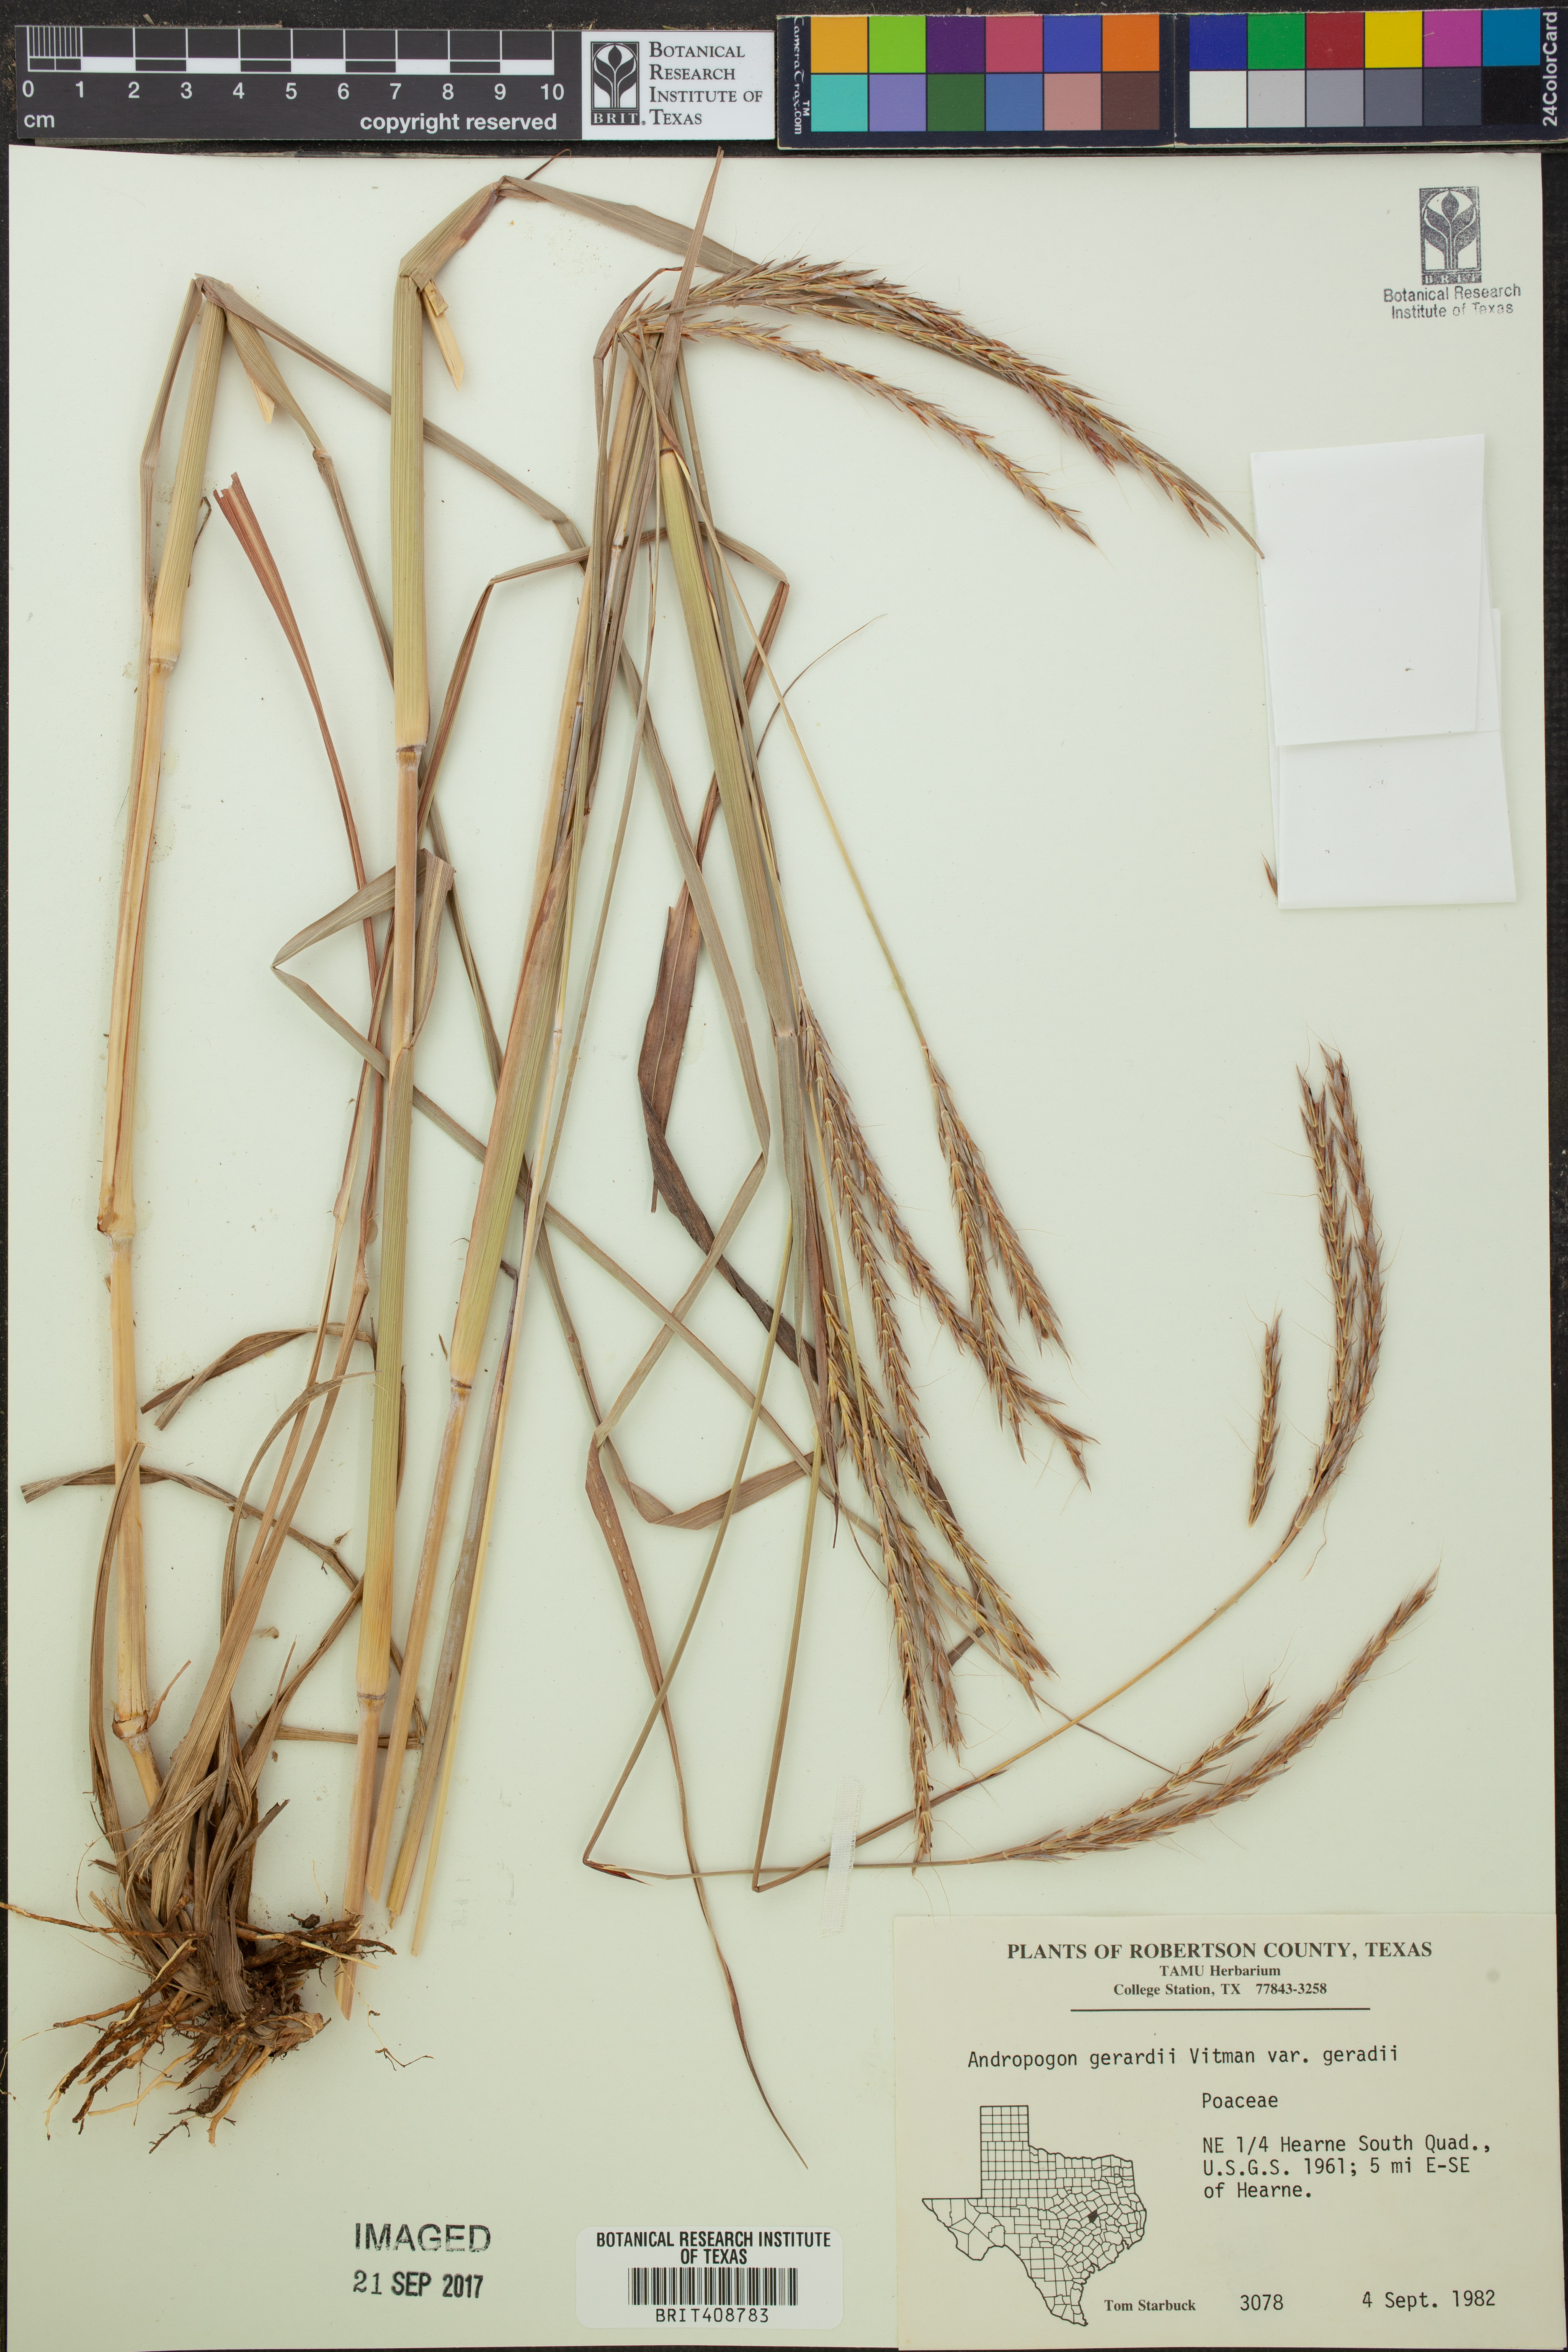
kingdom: Plantae
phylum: Tracheophyta
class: Liliopsida
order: Poales
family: Poaceae
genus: Andropogon
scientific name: Andropogon gerardi
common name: Big bluestem
